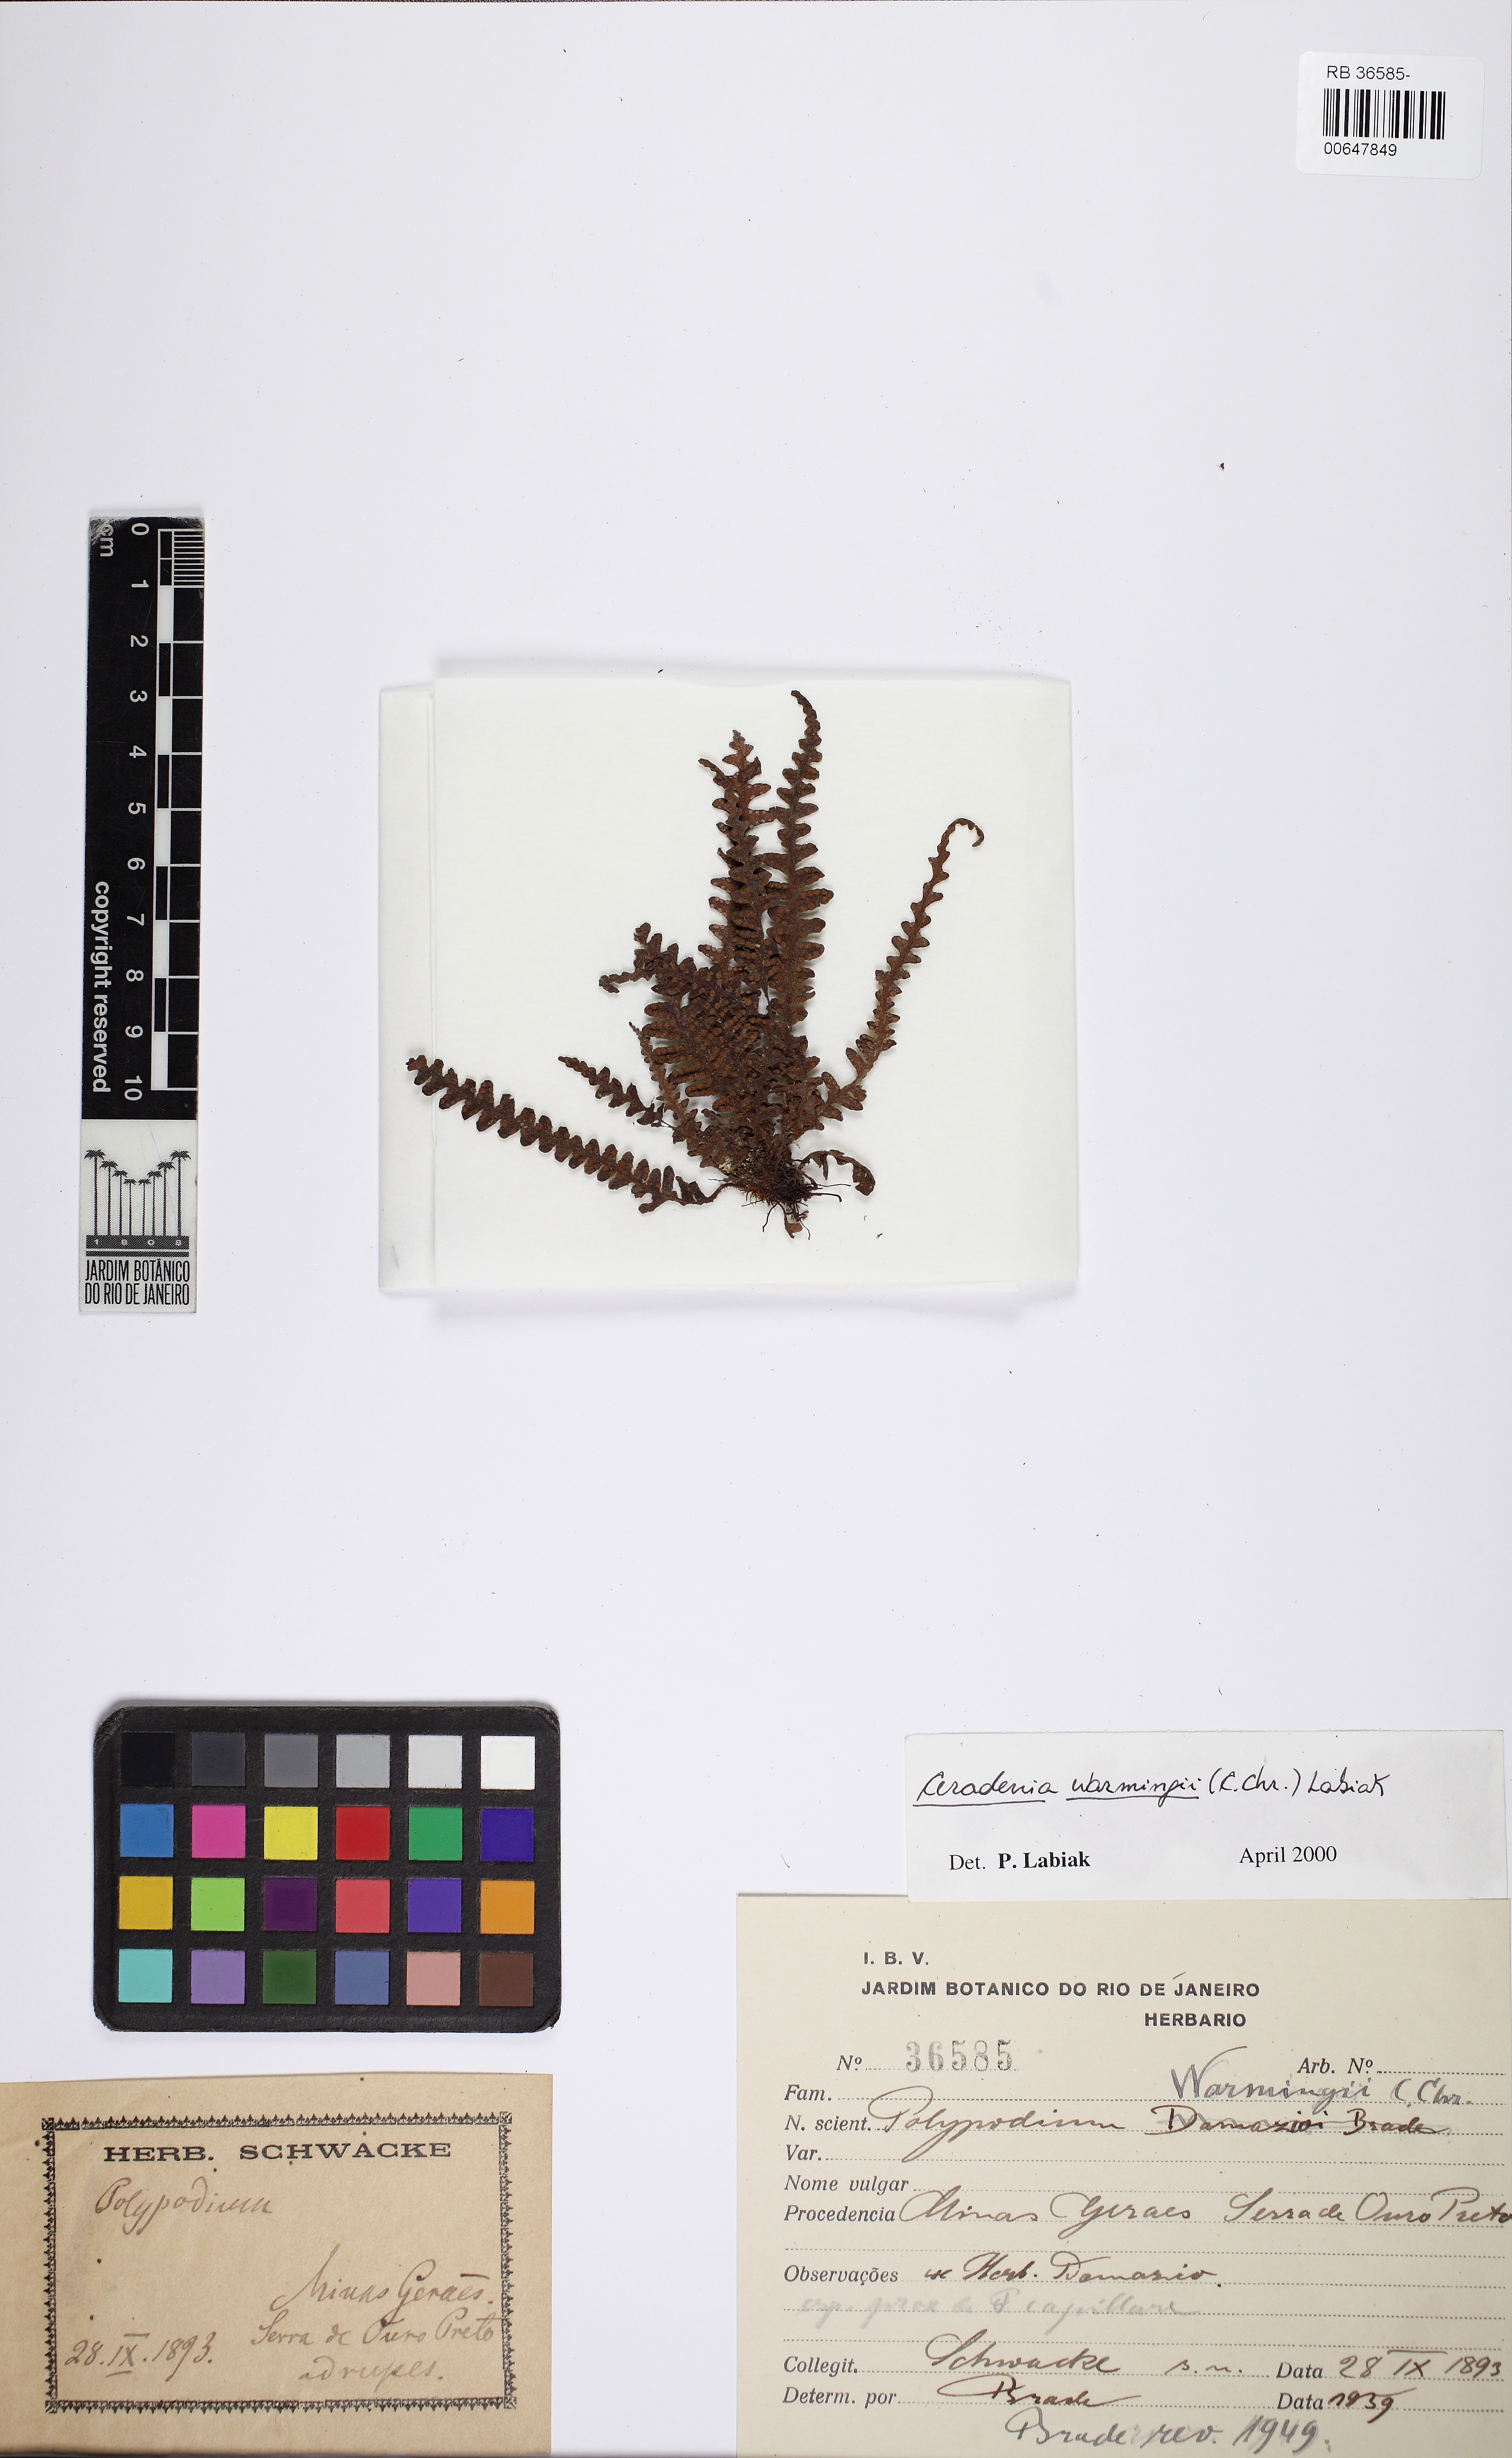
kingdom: Plantae
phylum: Tracheophyta
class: Polypodiopsida
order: Polypodiales
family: Polypodiaceae
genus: Ceradenia
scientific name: Ceradenia warmingii
